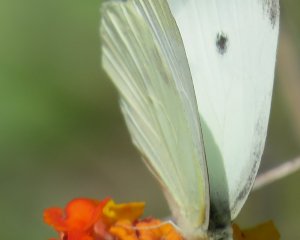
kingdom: Animalia
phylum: Arthropoda
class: Insecta
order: Lepidoptera
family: Pieridae
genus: Pieris
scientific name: Pieris rapae
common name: Cabbage White
